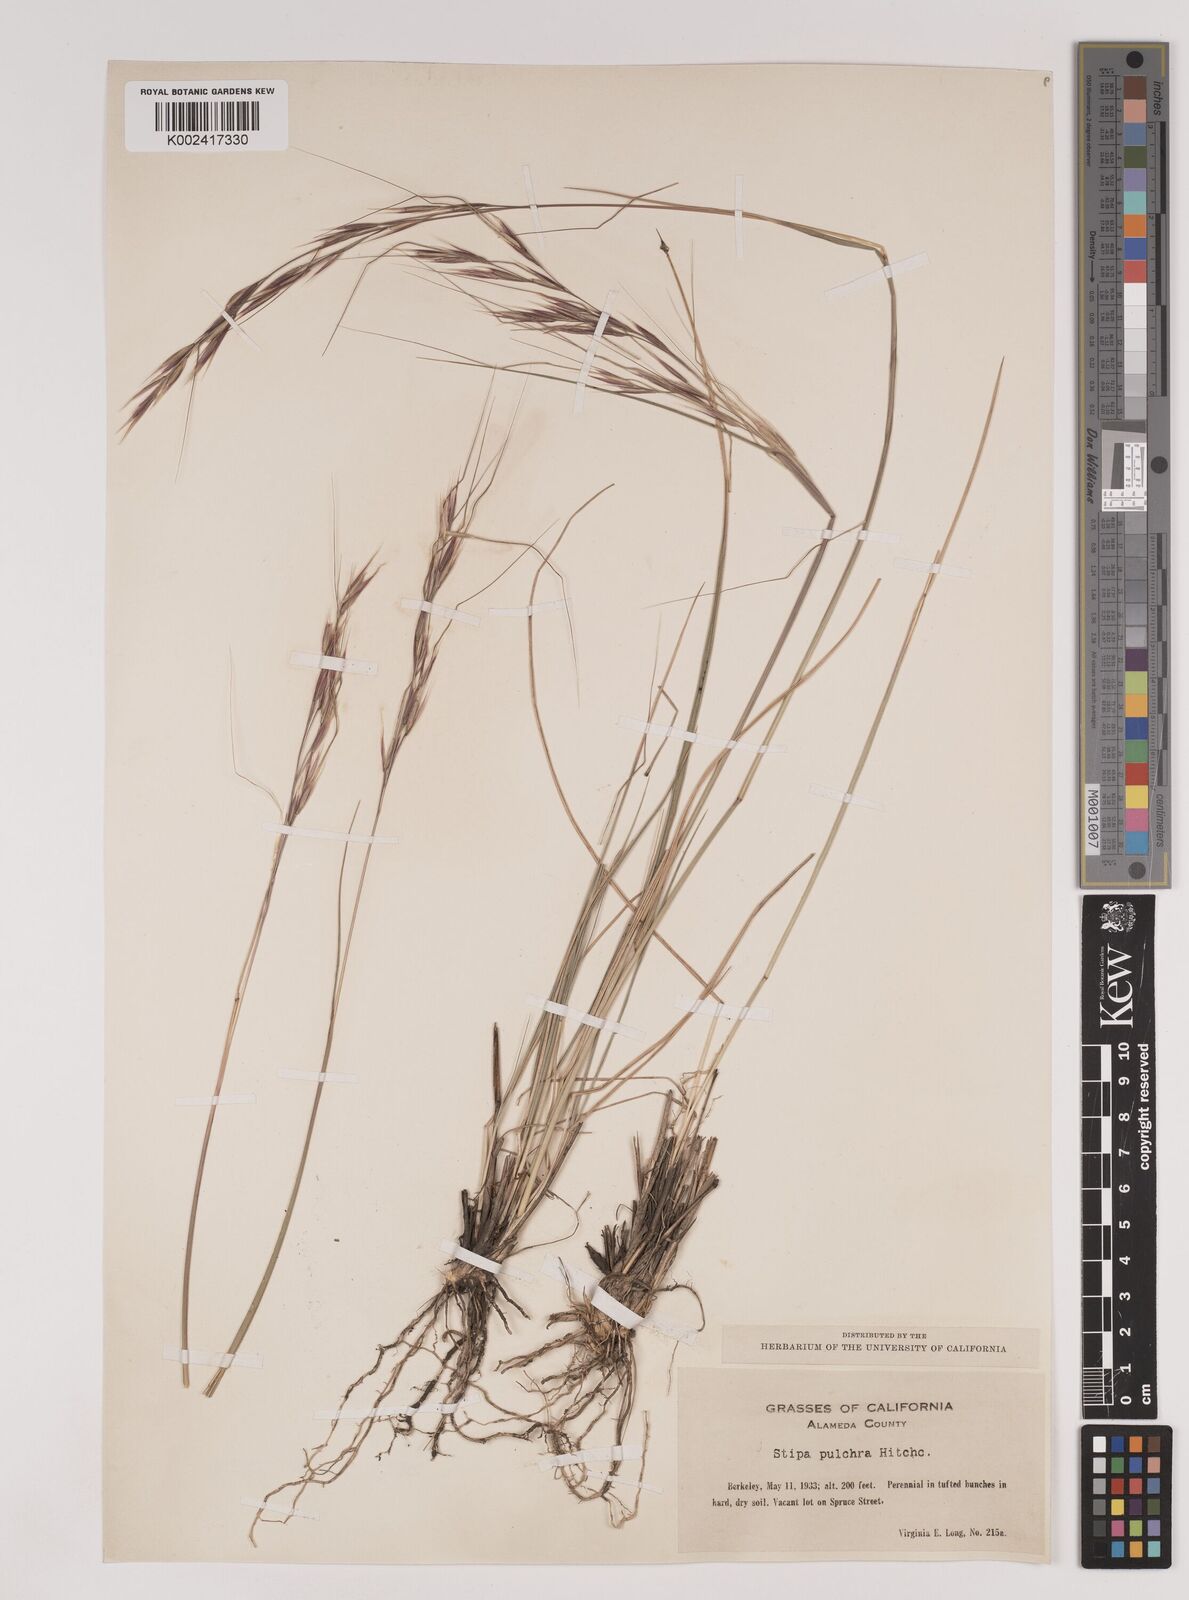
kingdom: Plantae
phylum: Tracheophyta
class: Liliopsida
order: Poales
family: Poaceae
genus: Nassella
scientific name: Nassella pulchra
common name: Purple needlegrass
